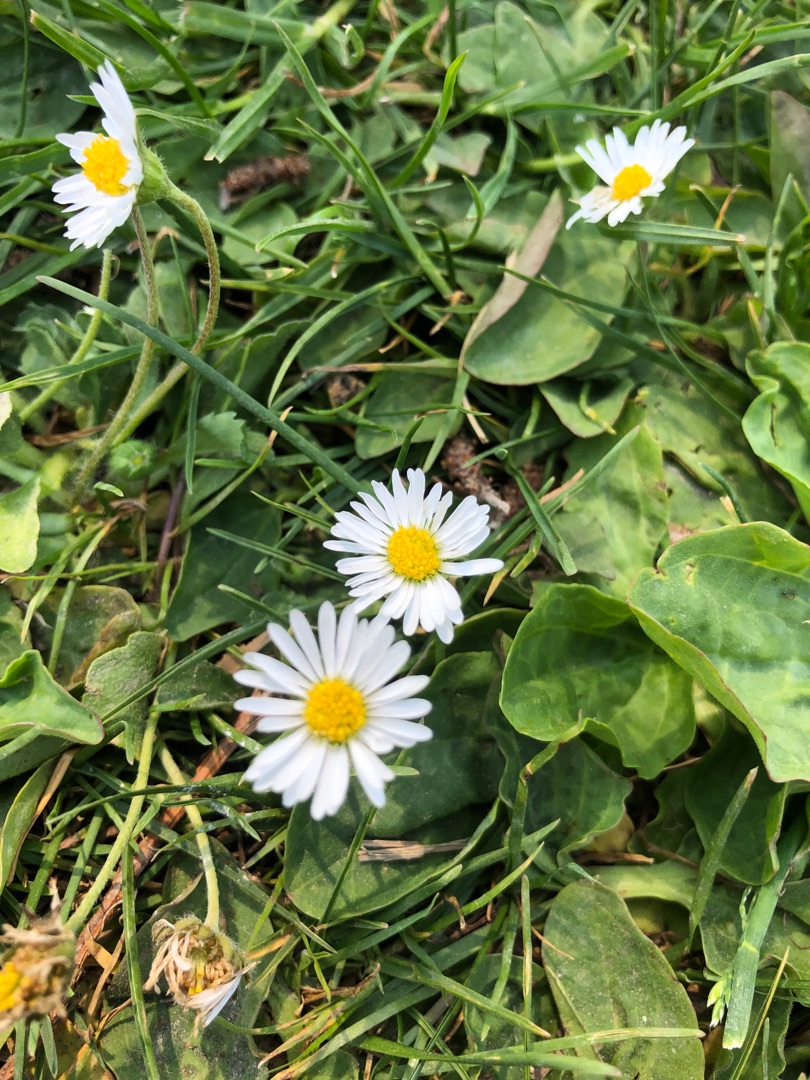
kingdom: Plantae
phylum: Tracheophyta
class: Magnoliopsida
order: Asterales
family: Asteraceae
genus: Bellis
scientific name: Bellis perennis
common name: Tusindfryd
